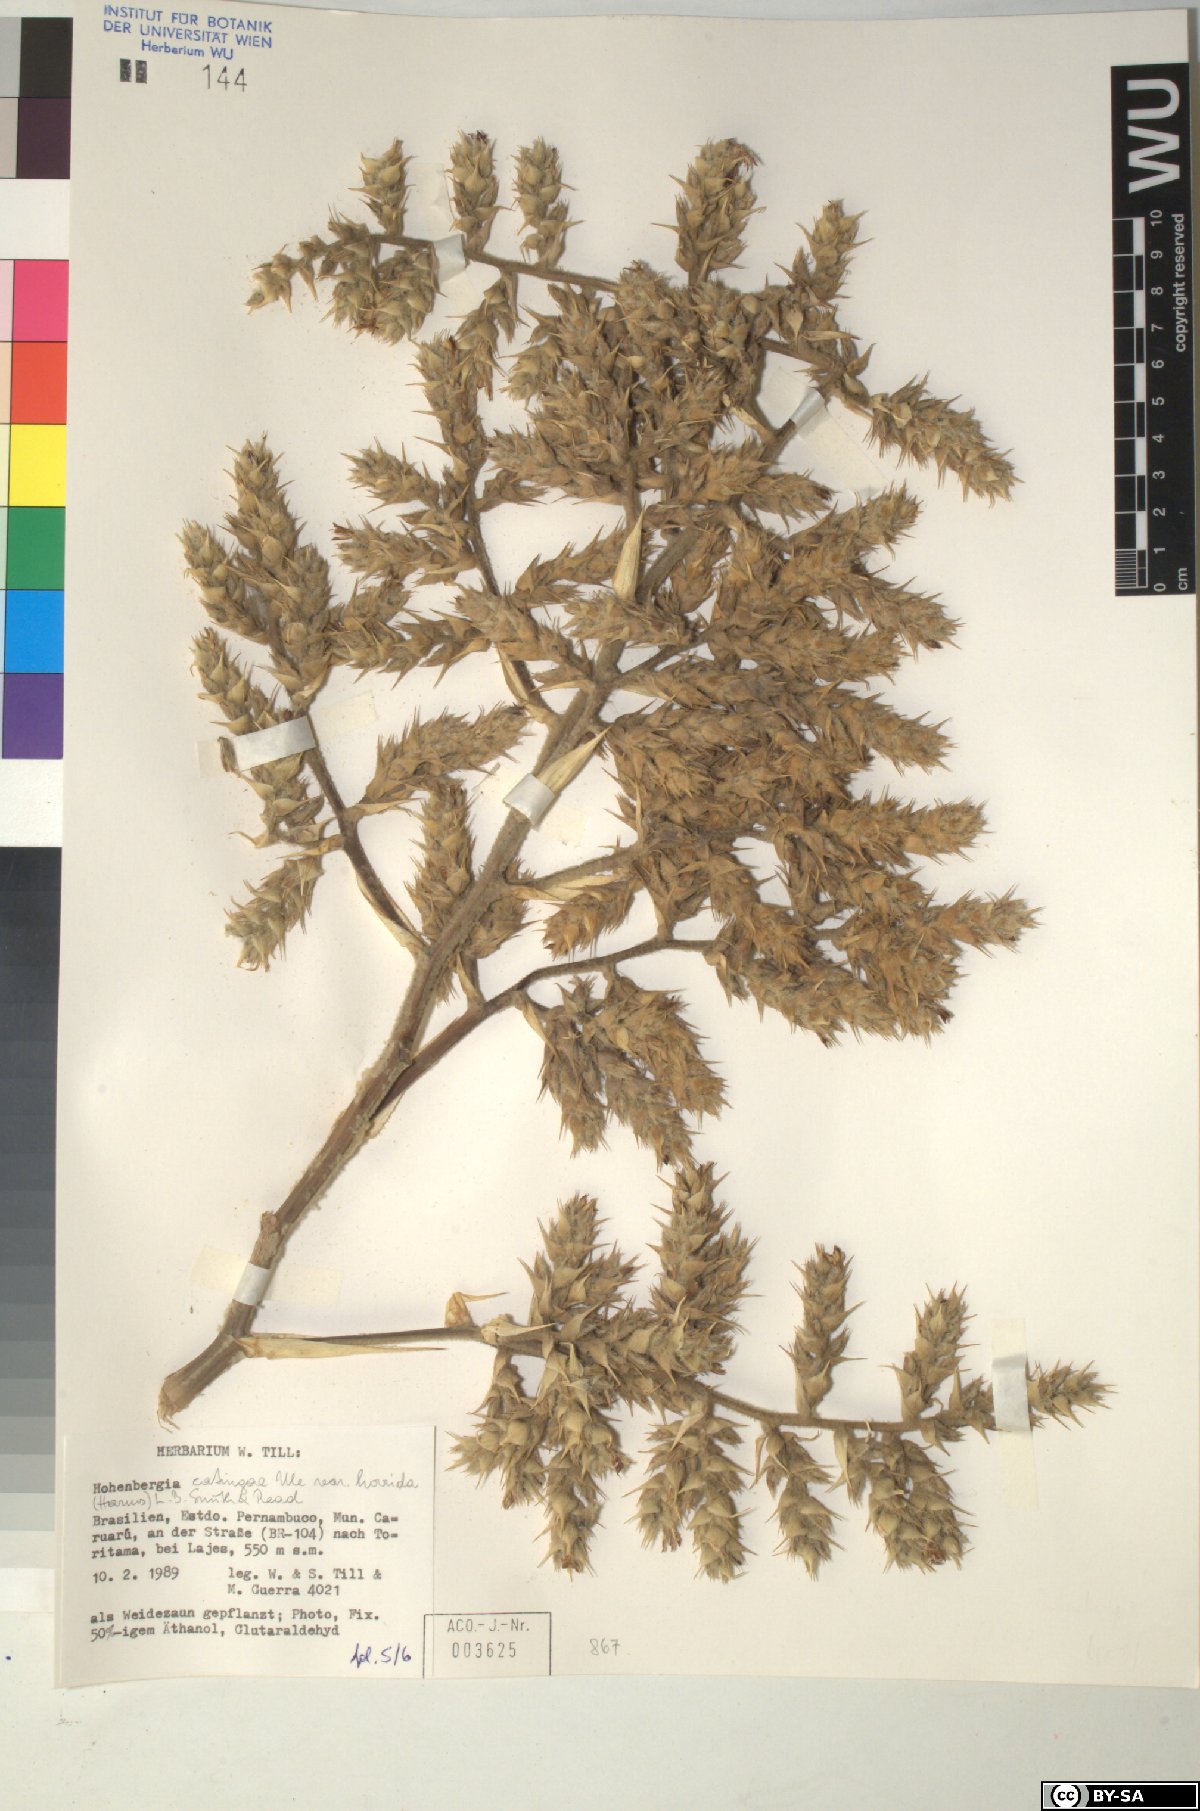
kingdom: Plantae
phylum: Tracheophyta
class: Liliopsida
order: Poales
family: Bromeliaceae
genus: Hohenbergia
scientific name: Hohenbergia
